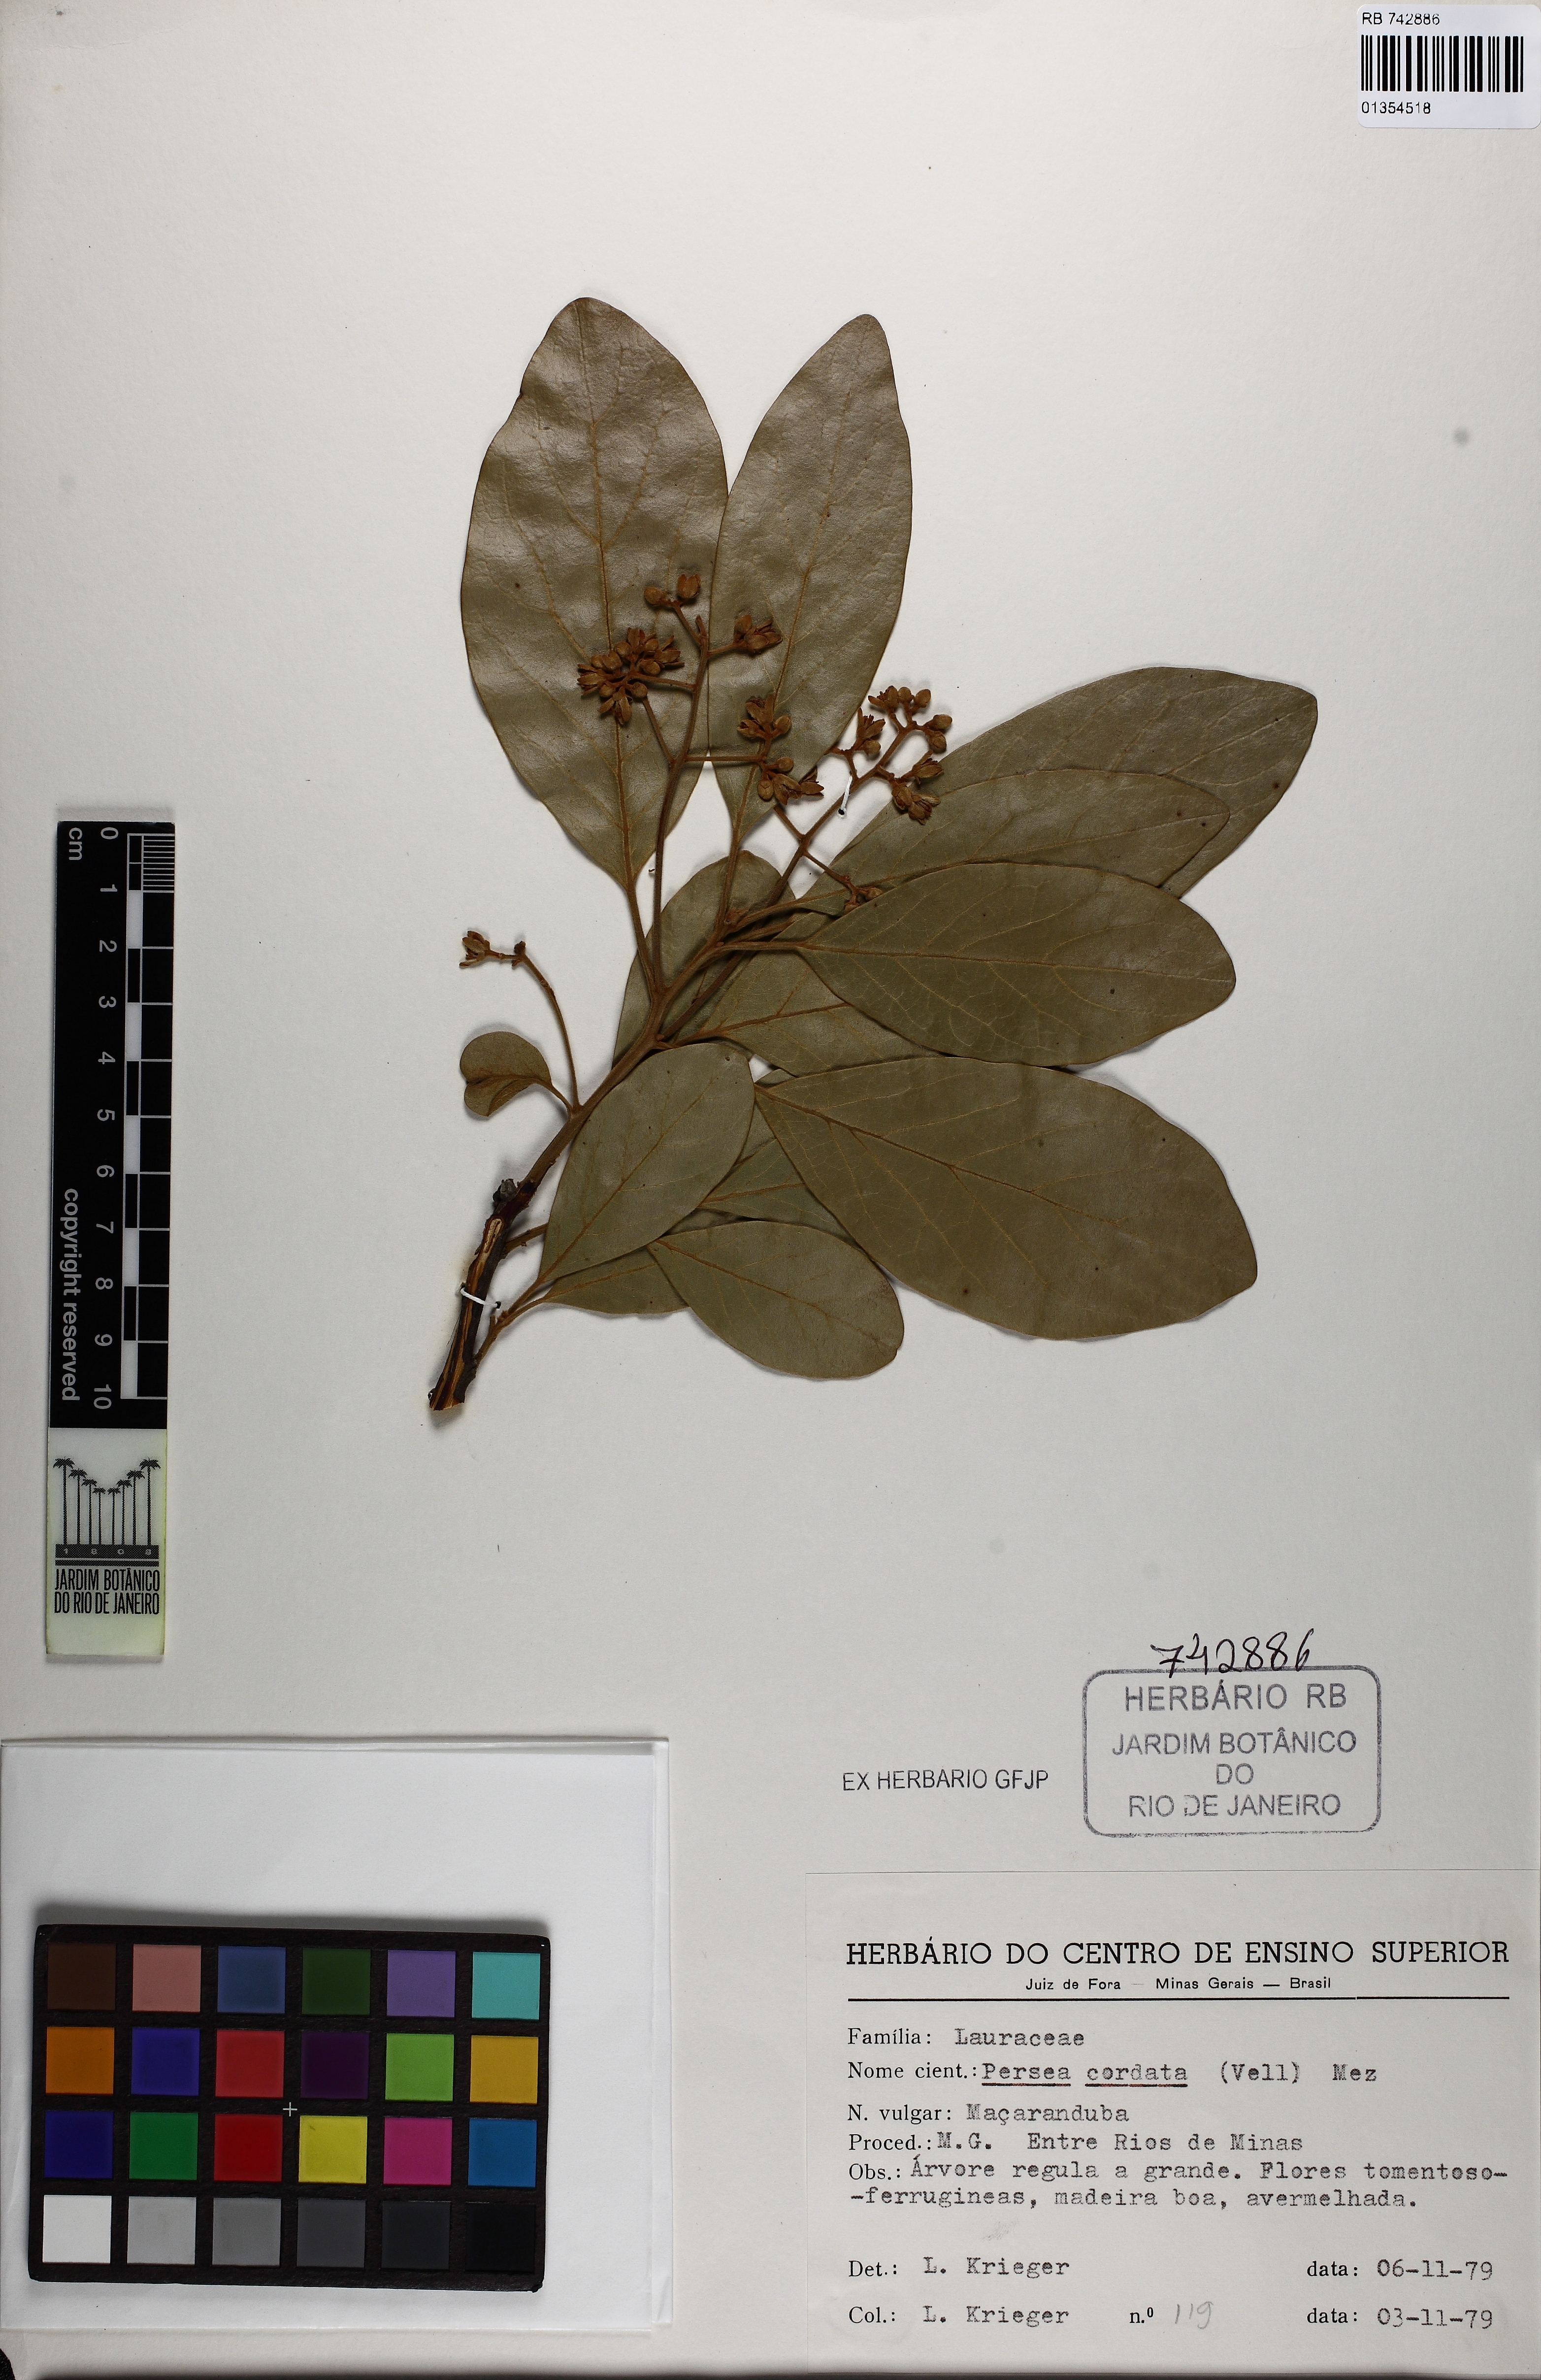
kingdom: Plantae
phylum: Tracheophyta
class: Magnoliopsida
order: Laurales
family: Lauraceae
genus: Persea
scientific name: Persea major
